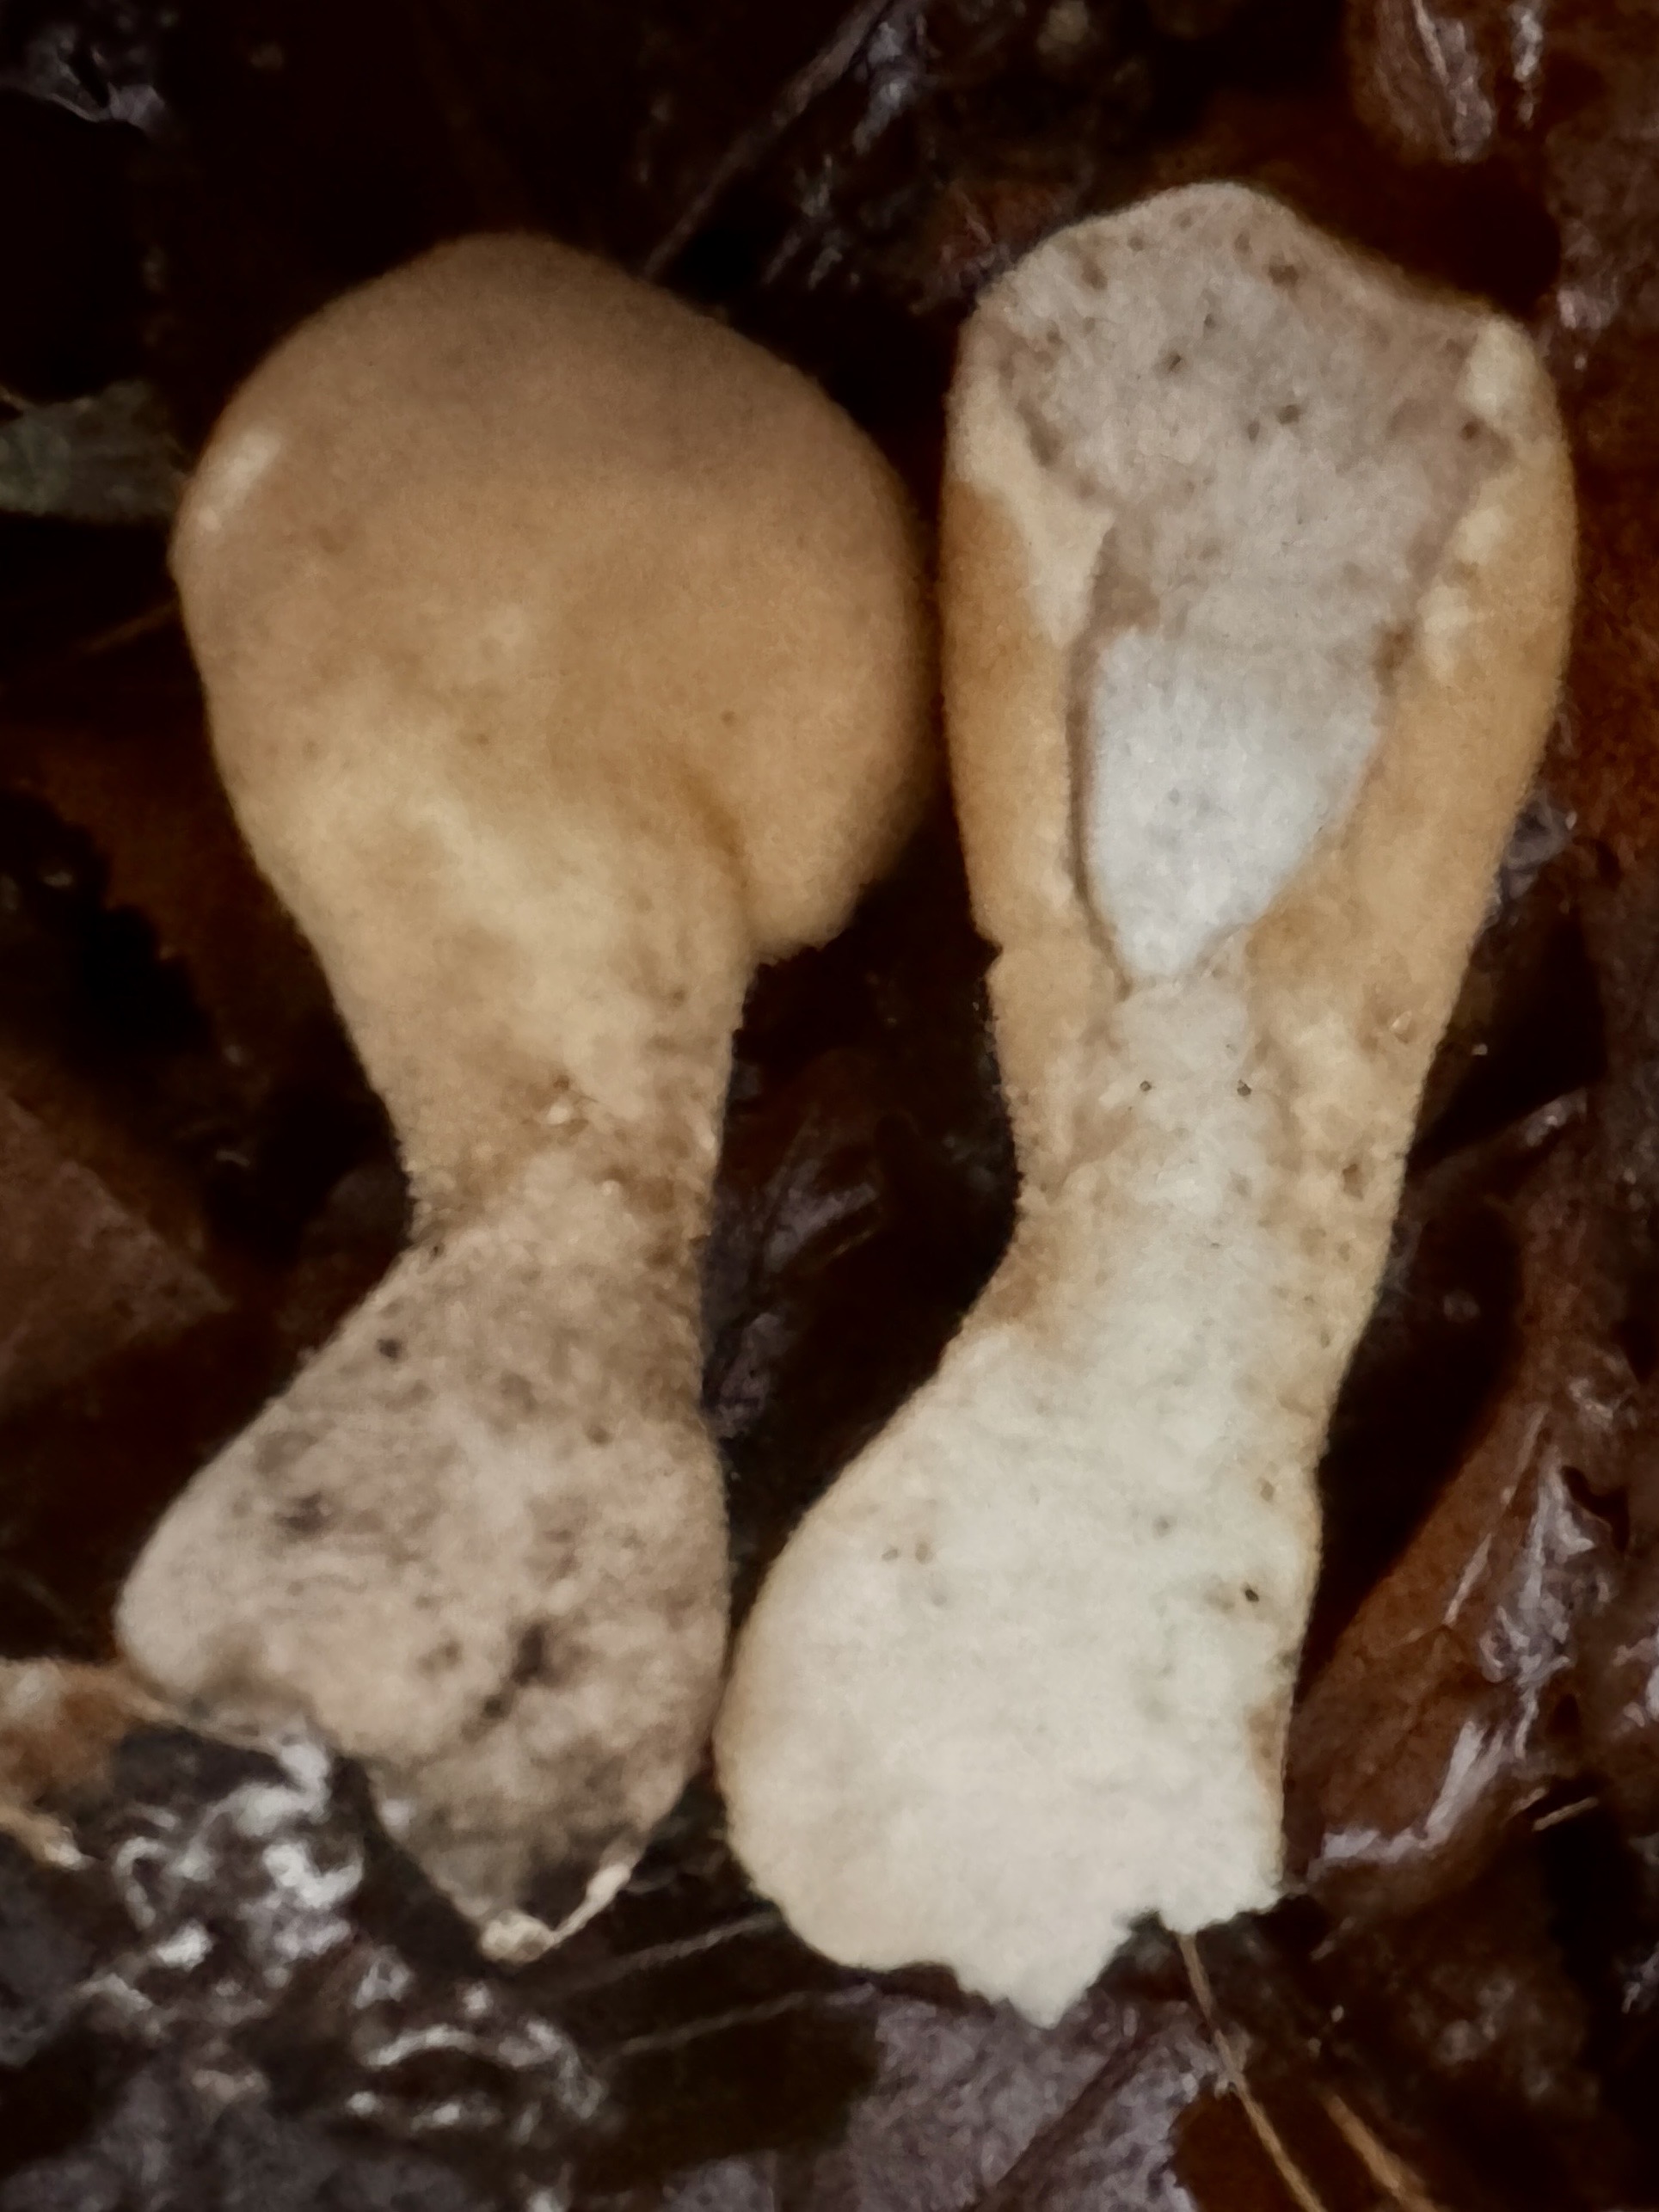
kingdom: Fungi
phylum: Basidiomycota
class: Agaricomycetes
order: Agaricales
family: Lycoperdaceae
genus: Lycoperdon
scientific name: Lycoperdon excipuliforme
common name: højstokket støvbold
